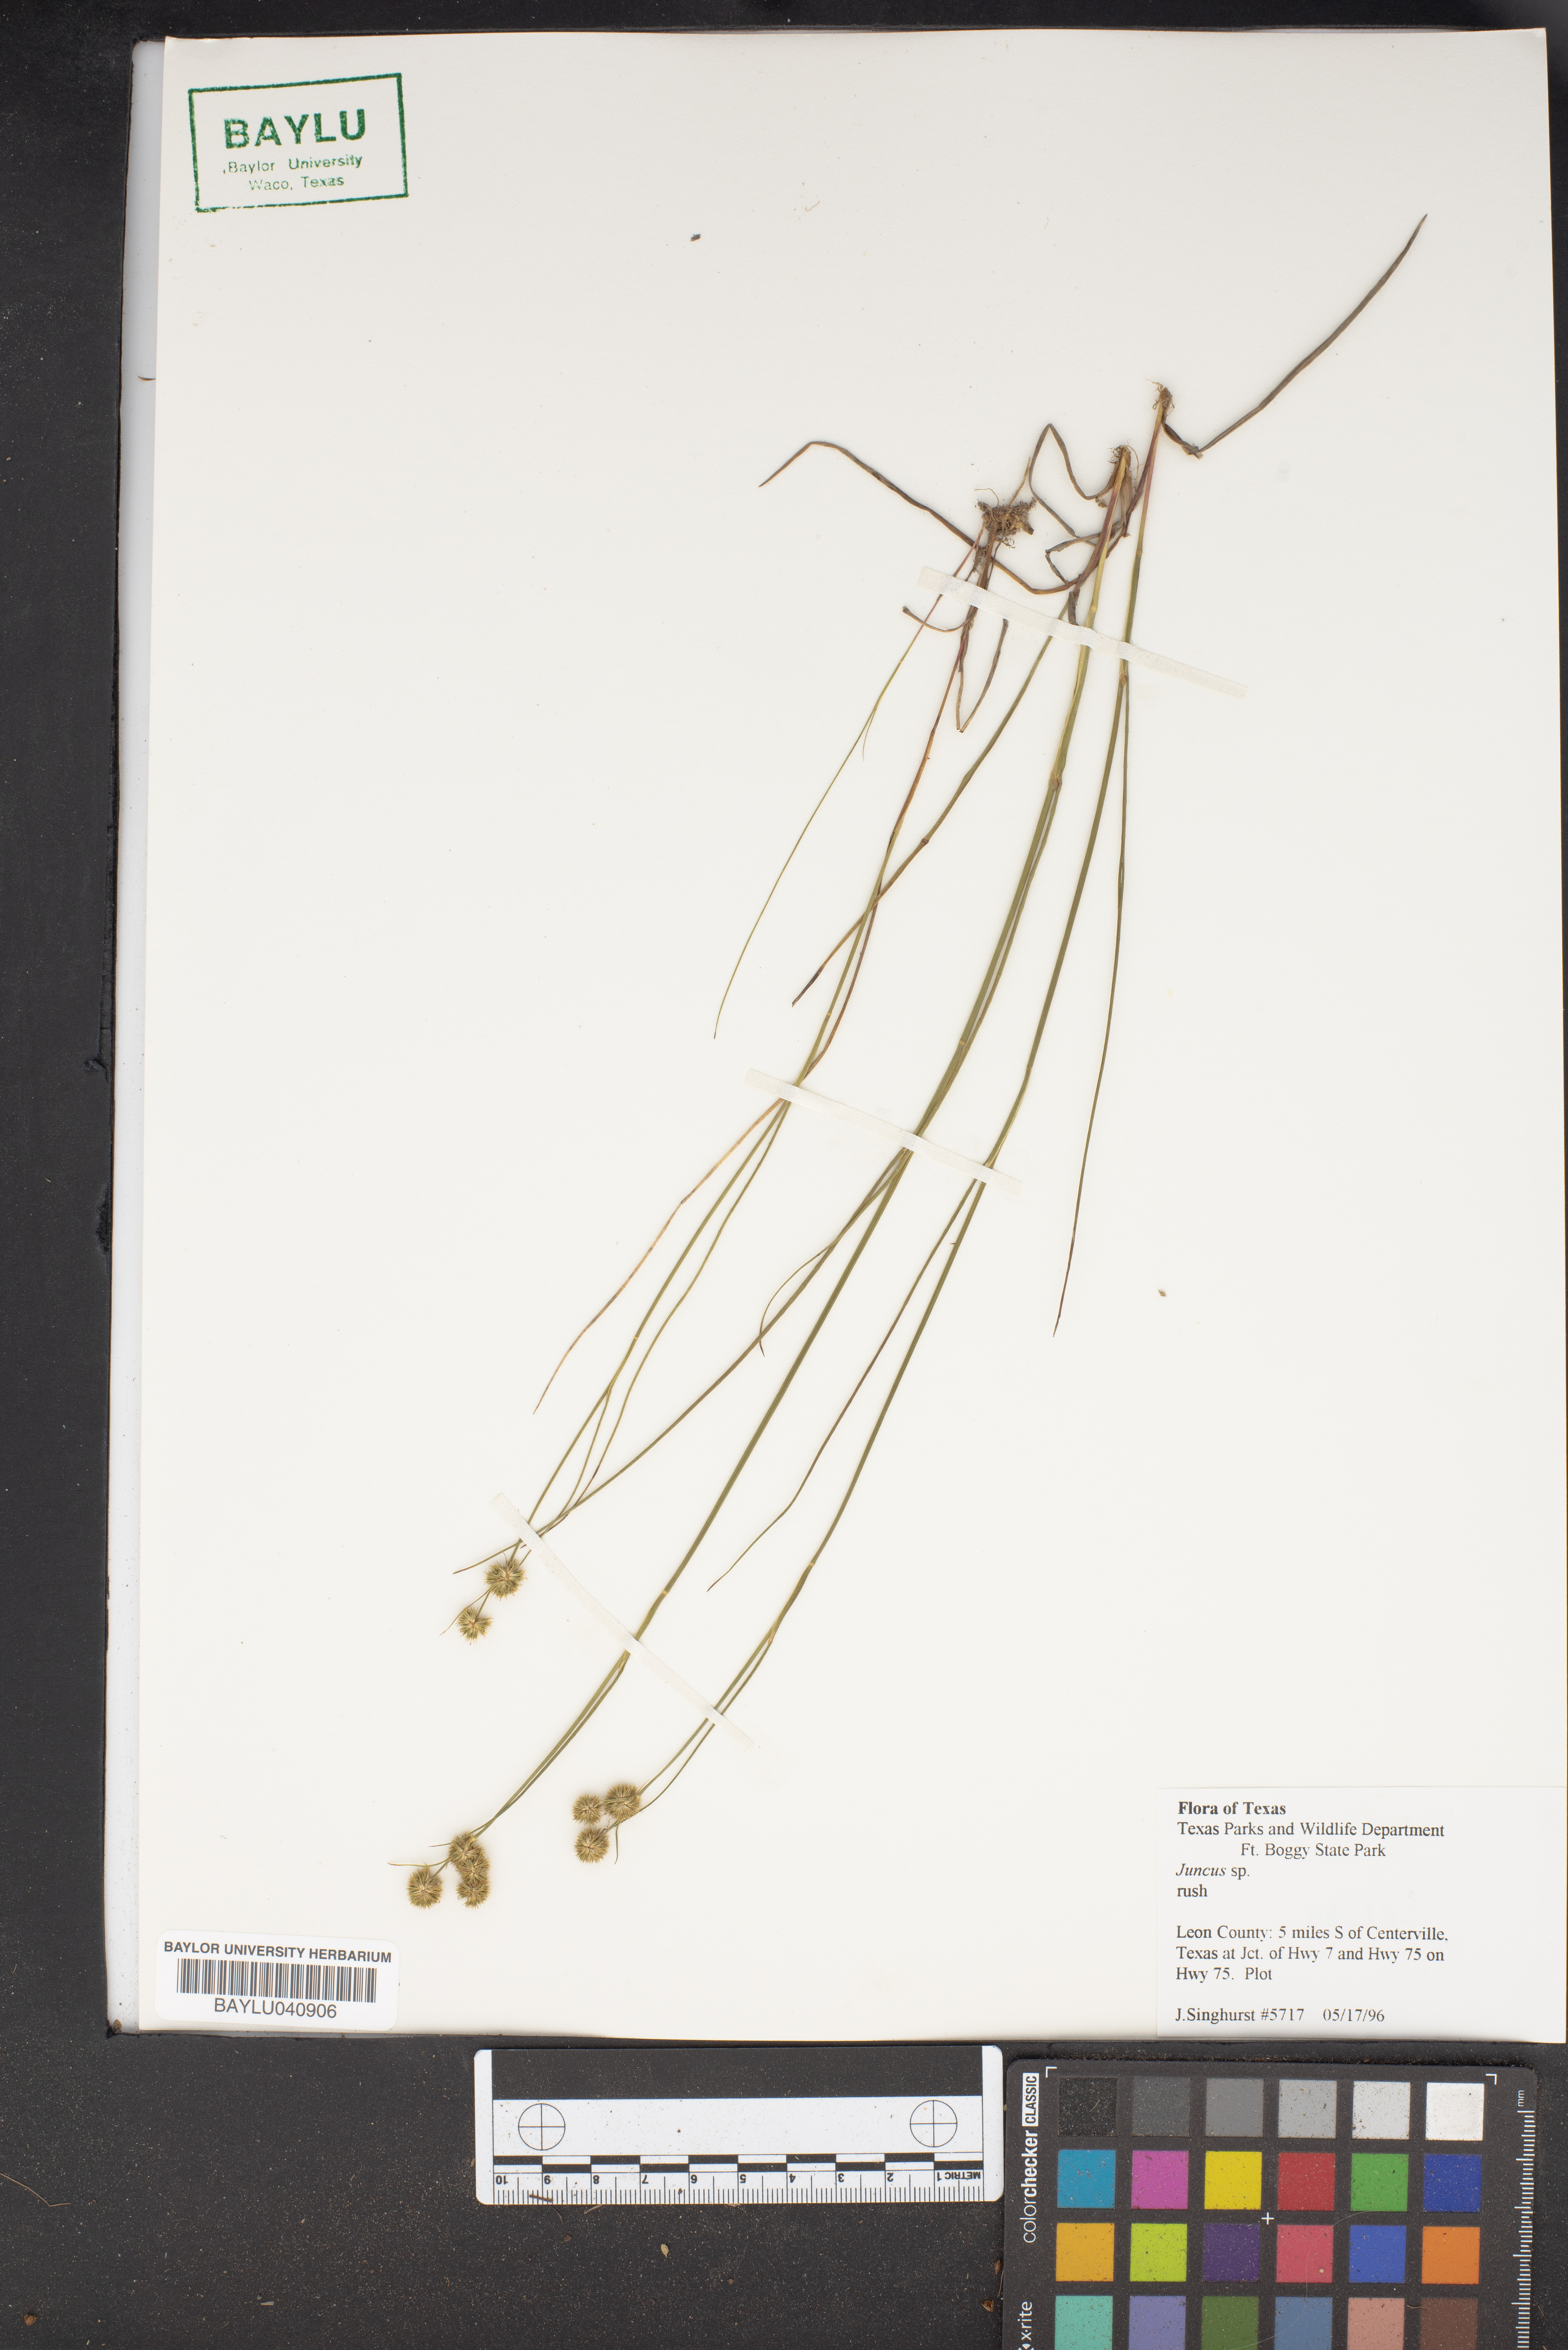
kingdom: Plantae
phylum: Tracheophyta
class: Liliopsida
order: Poales
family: Juncaceae
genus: Juncus
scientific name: Juncus
